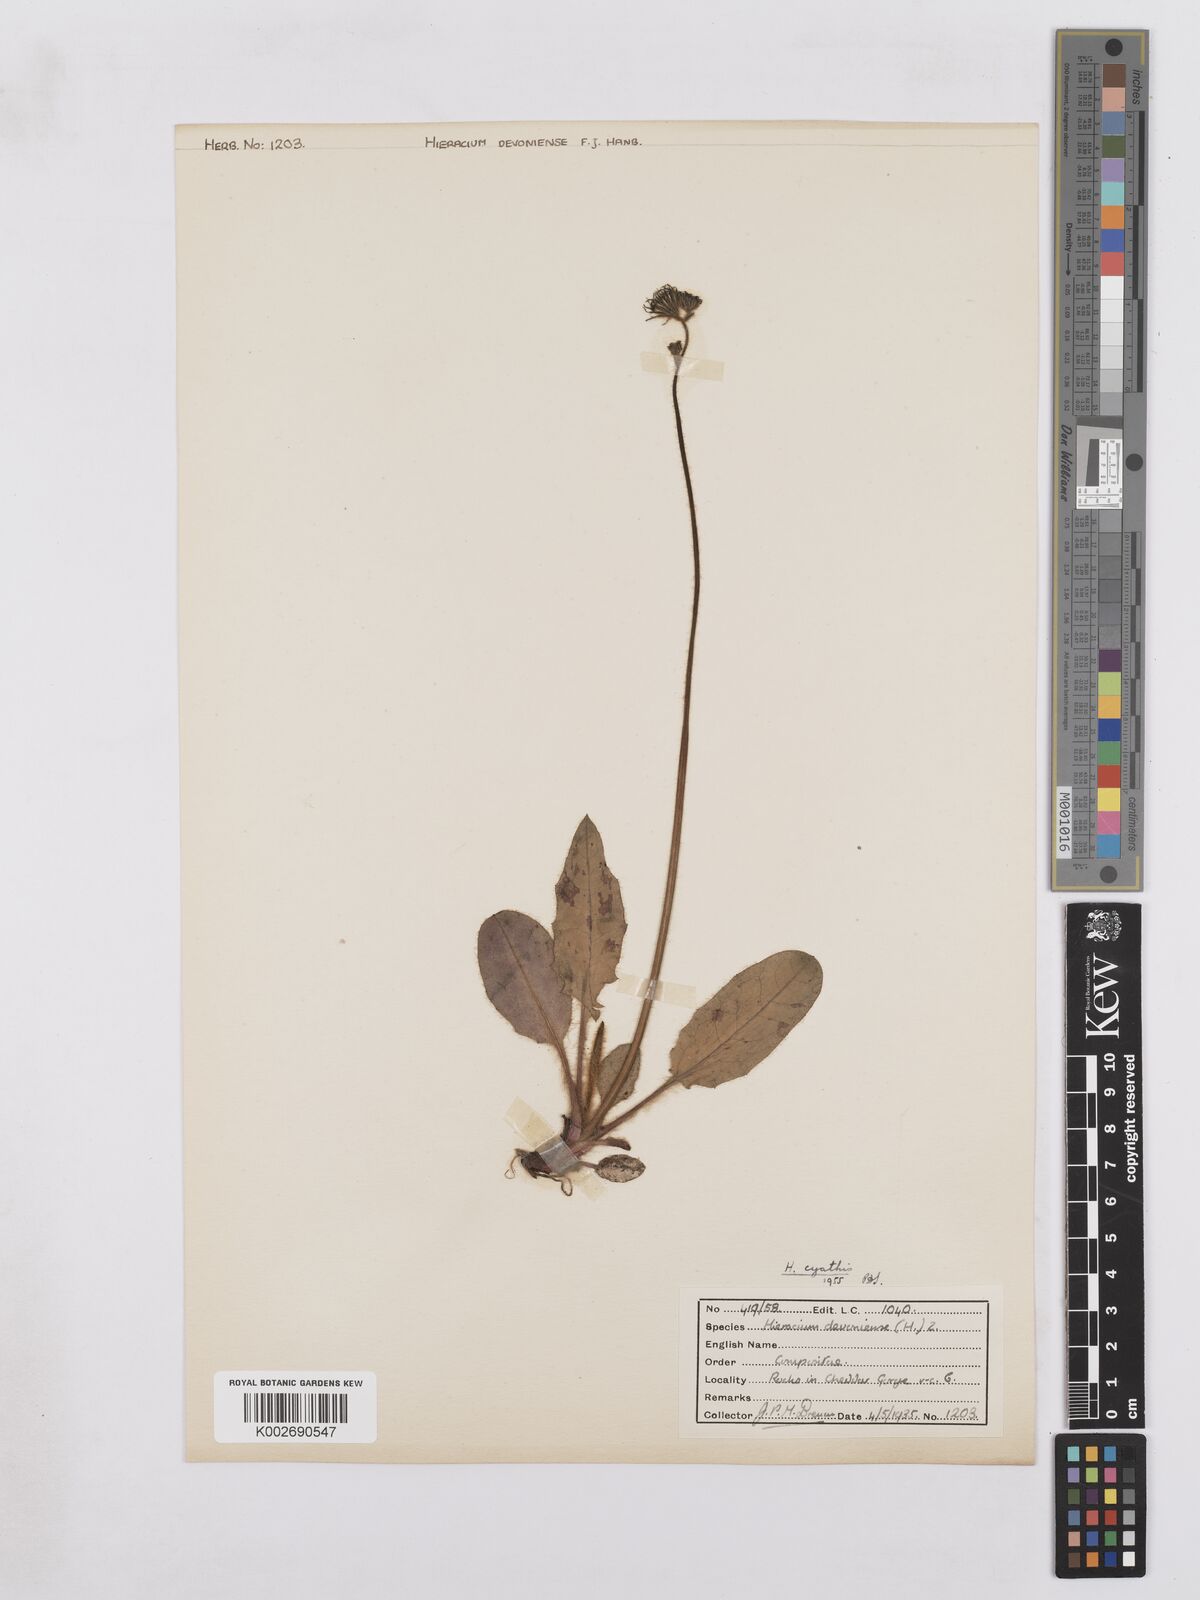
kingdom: Plantae
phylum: Tracheophyta
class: Magnoliopsida
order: Asterales
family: Asteraceae
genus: Hieracium
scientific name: Hieracium hypochoeroides
